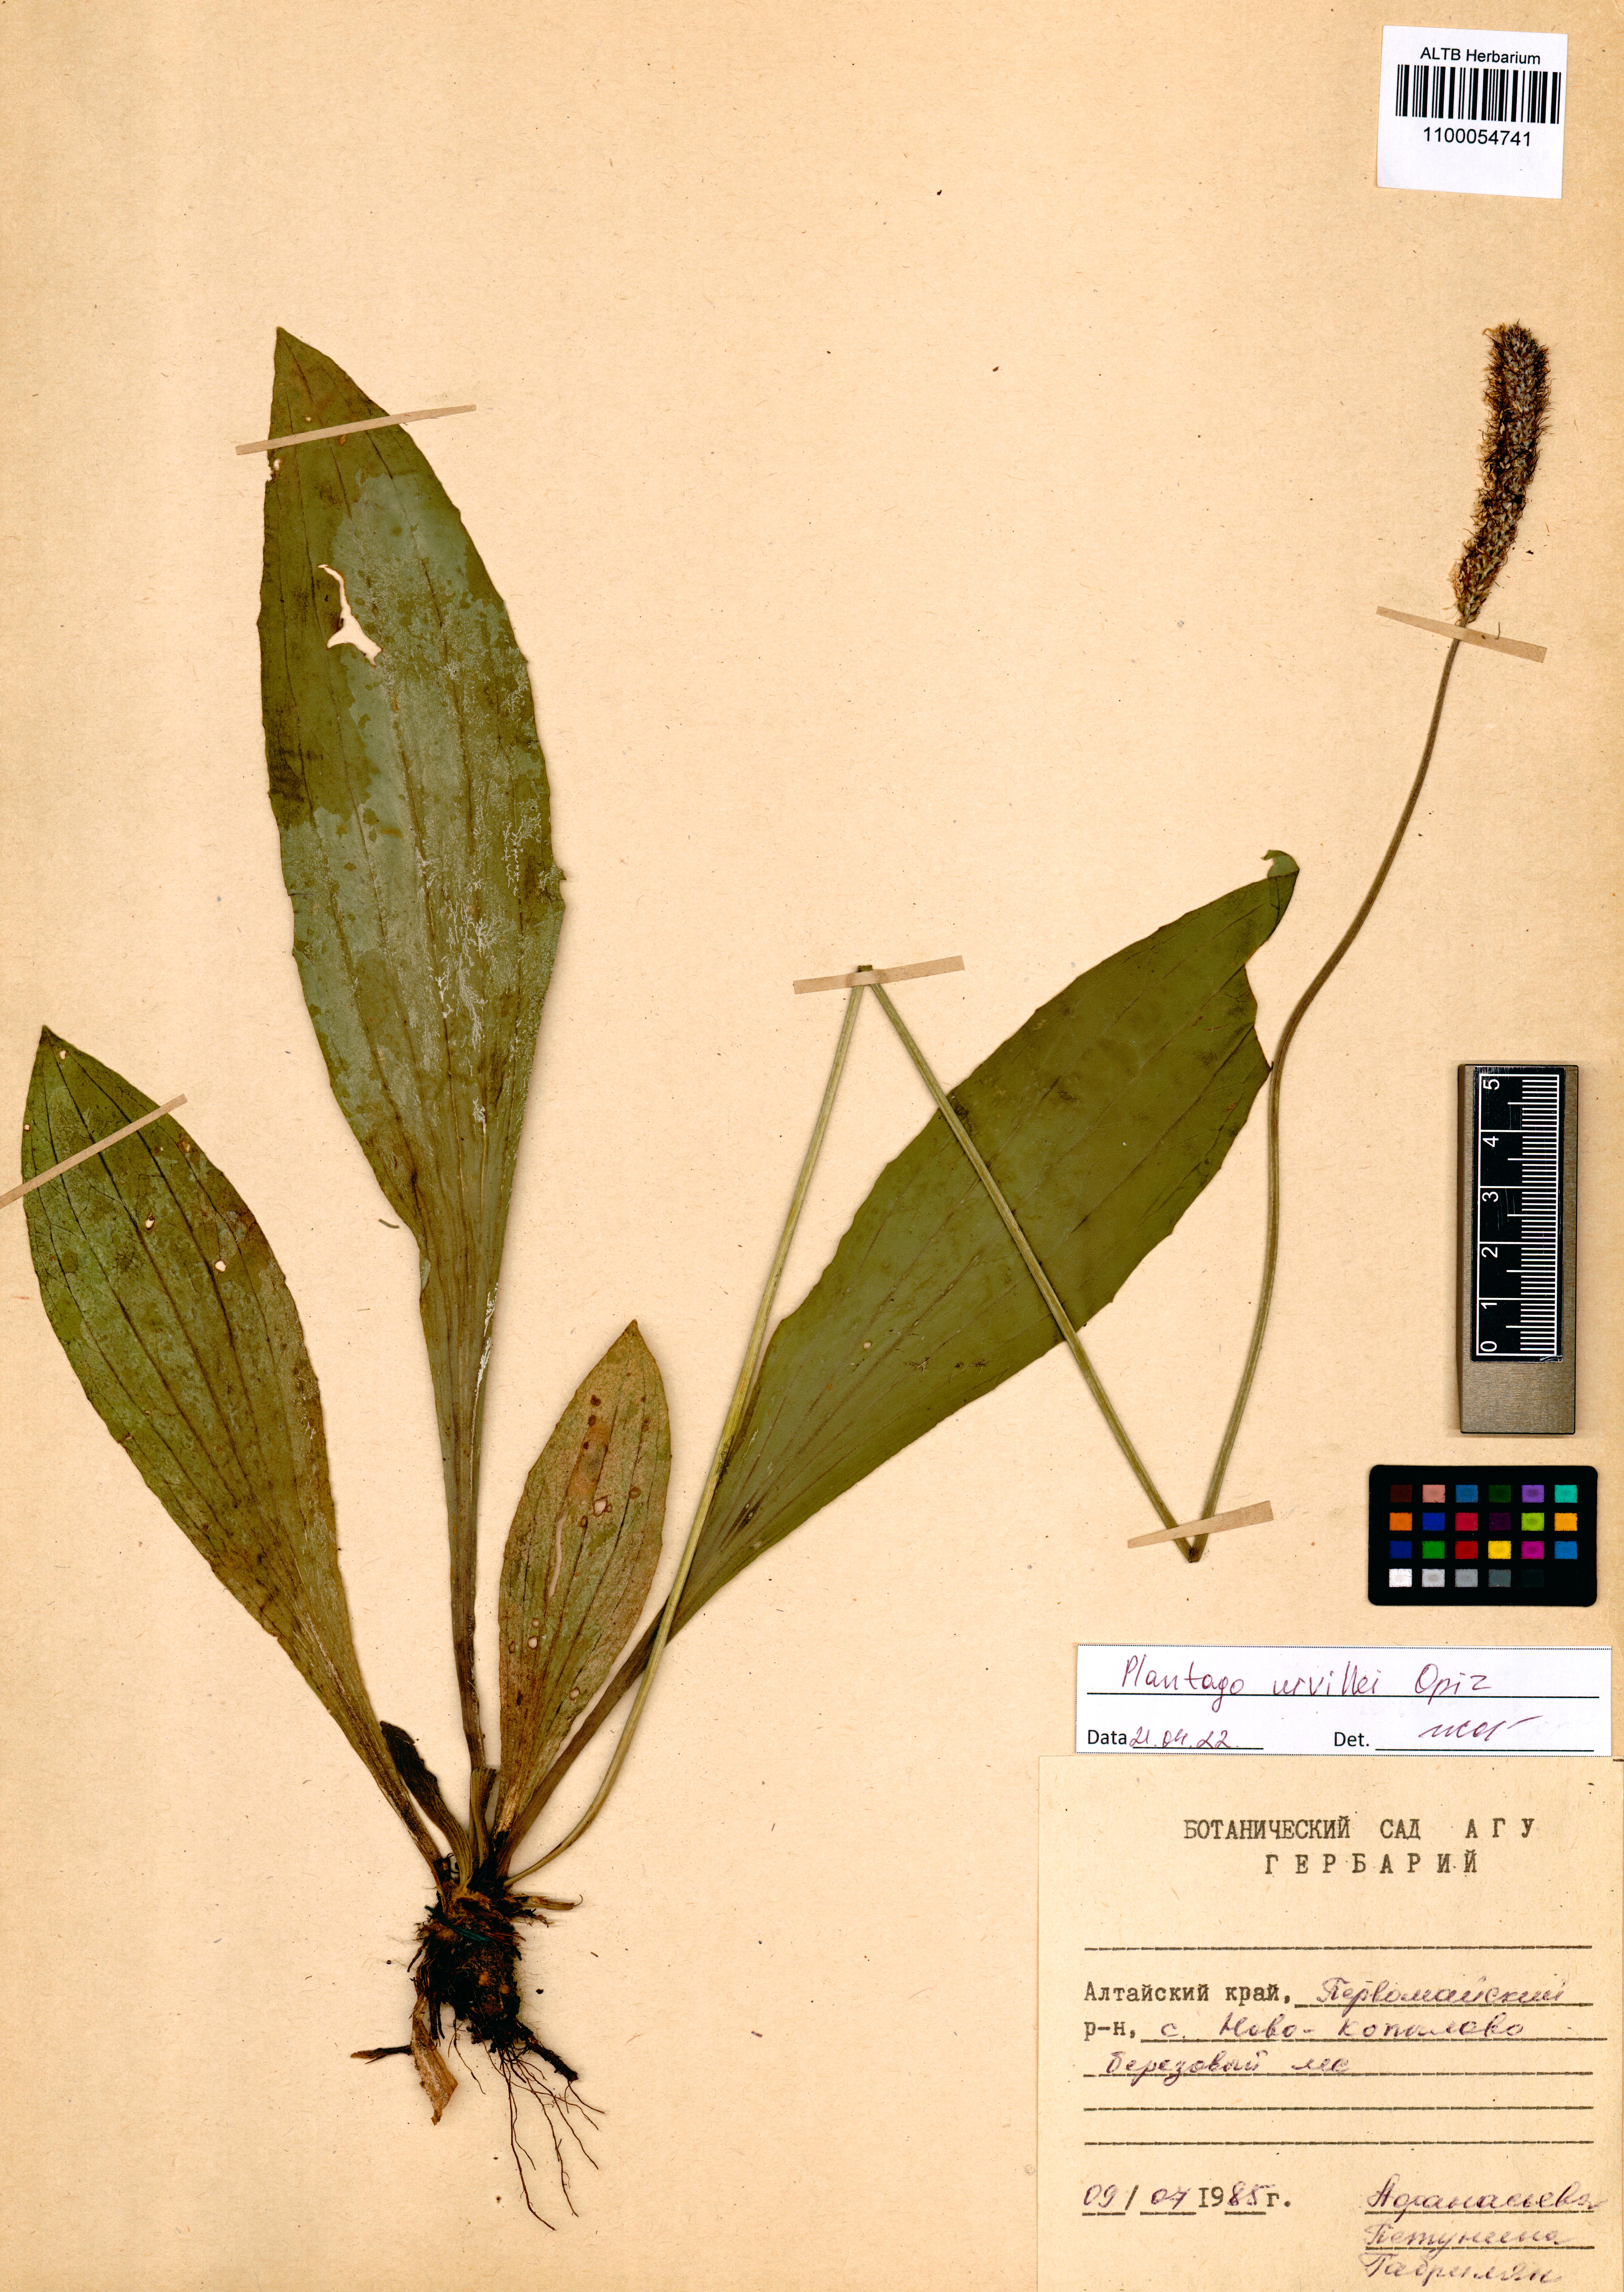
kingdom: Plantae
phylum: Tracheophyta
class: Magnoliopsida
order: Lamiales
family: Plantaginaceae
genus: Plantago
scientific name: Plantago urvillei
